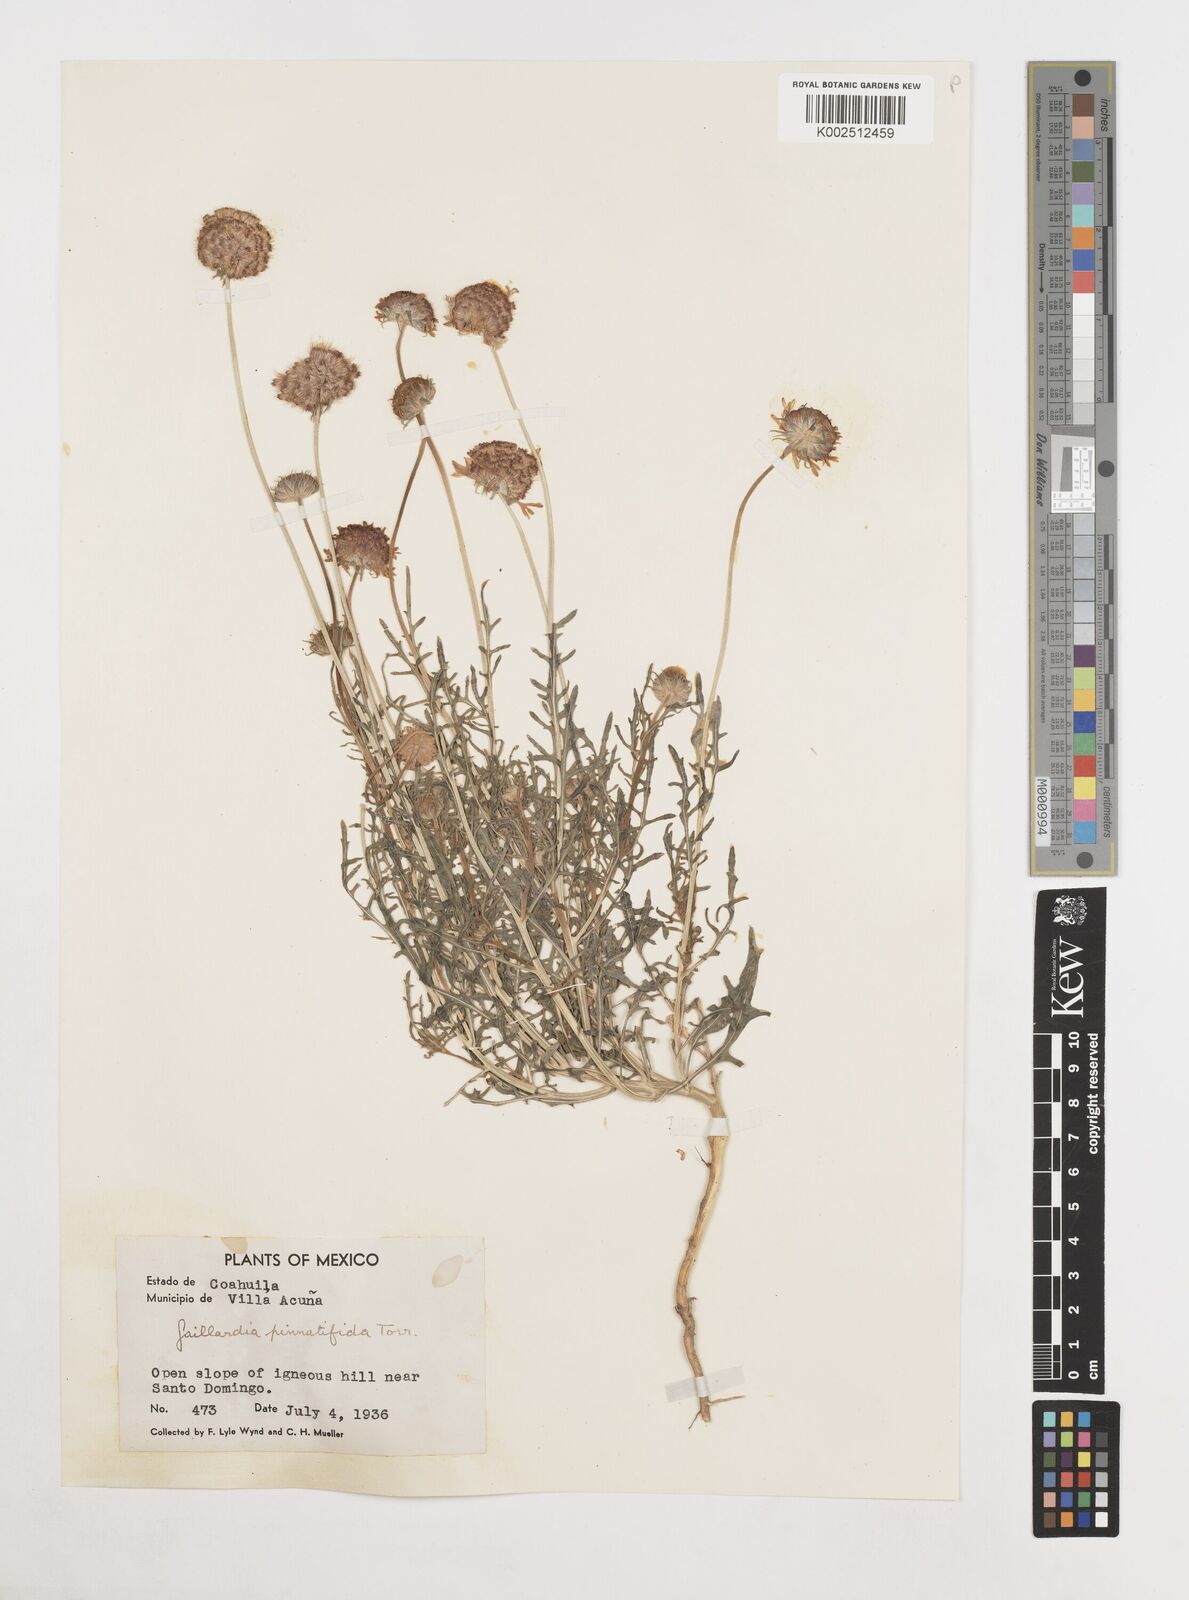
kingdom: Plantae
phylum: Tracheophyta
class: Magnoliopsida
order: Asterales
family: Asteraceae
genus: Gaillardia
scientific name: Gaillardia pinnatifida
